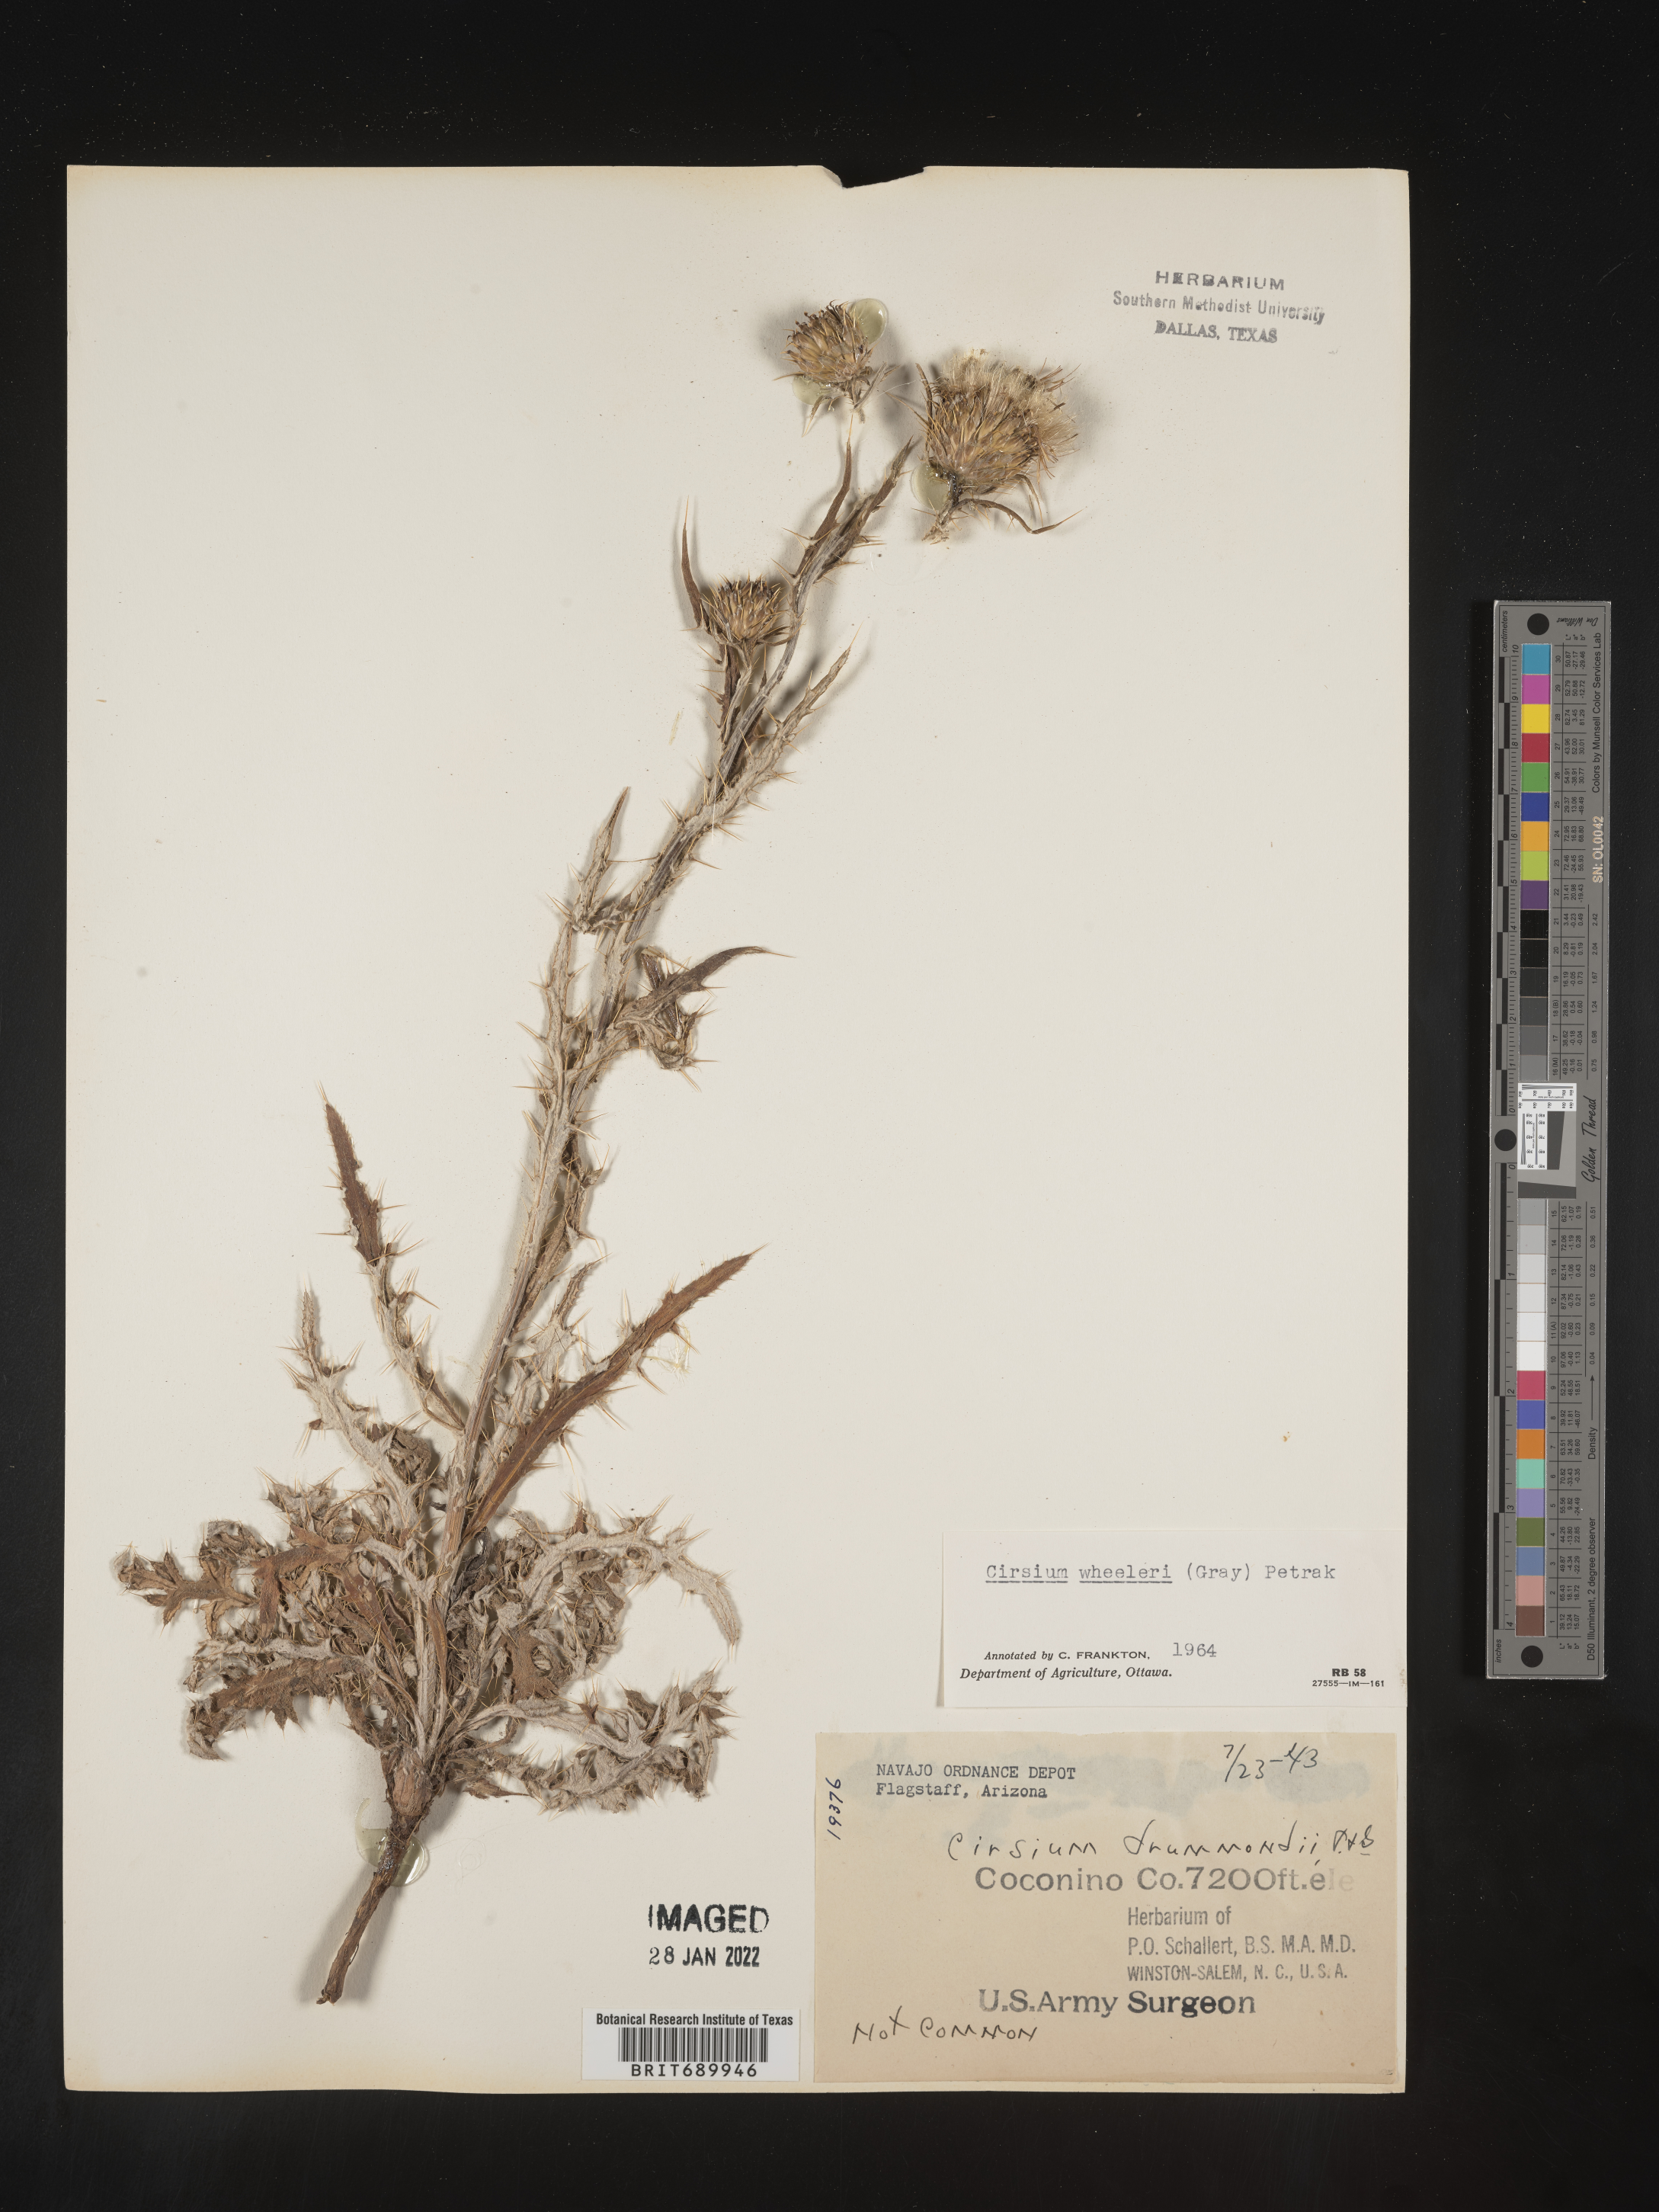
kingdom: Plantae
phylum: Tracheophyta
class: Magnoliopsida
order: Asterales
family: Asteraceae
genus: Cirsium
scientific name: Cirsium wheeleri
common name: Wheeler's thistle
